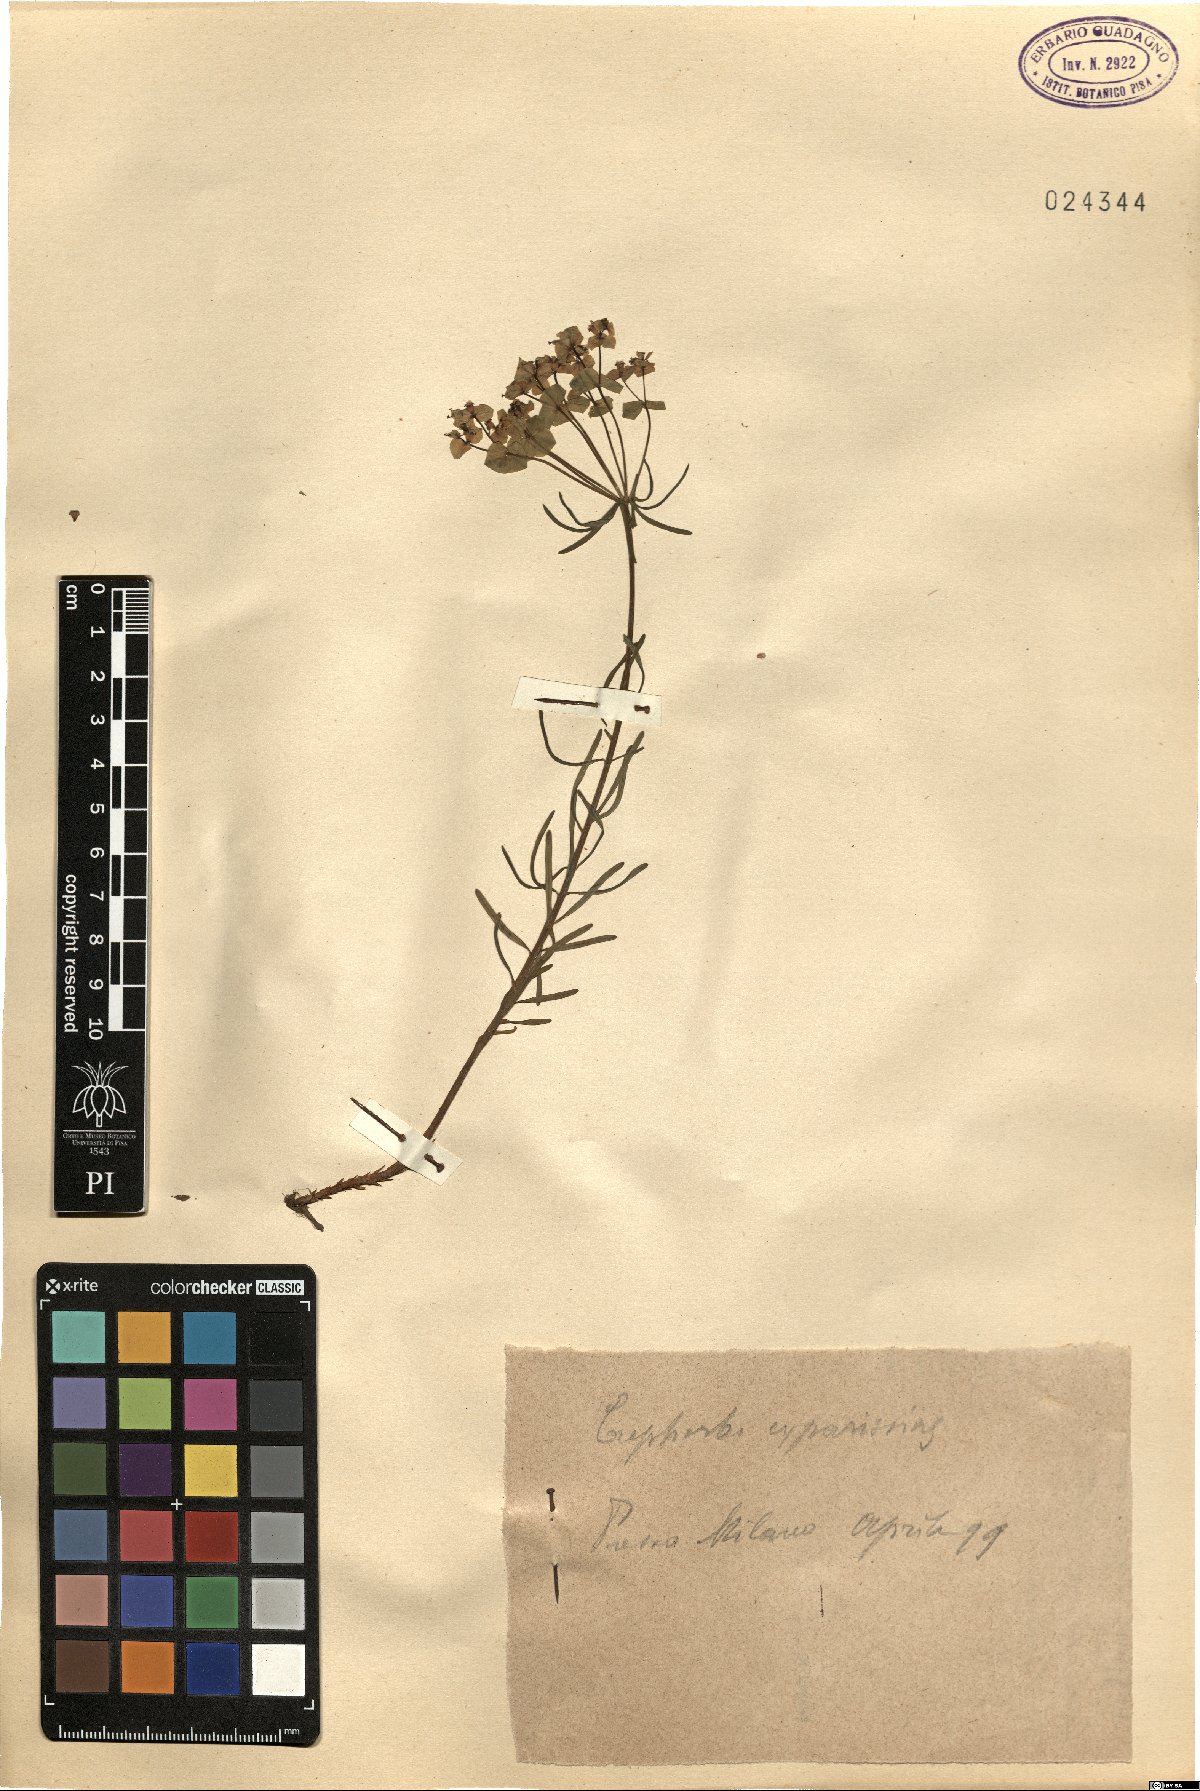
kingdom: Plantae
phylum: Tracheophyta
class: Magnoliopsida
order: Malpighiales
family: Euphorbiaceae
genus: Euphorbia
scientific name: Euphorbia cyparissias
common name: Cypress spurge
